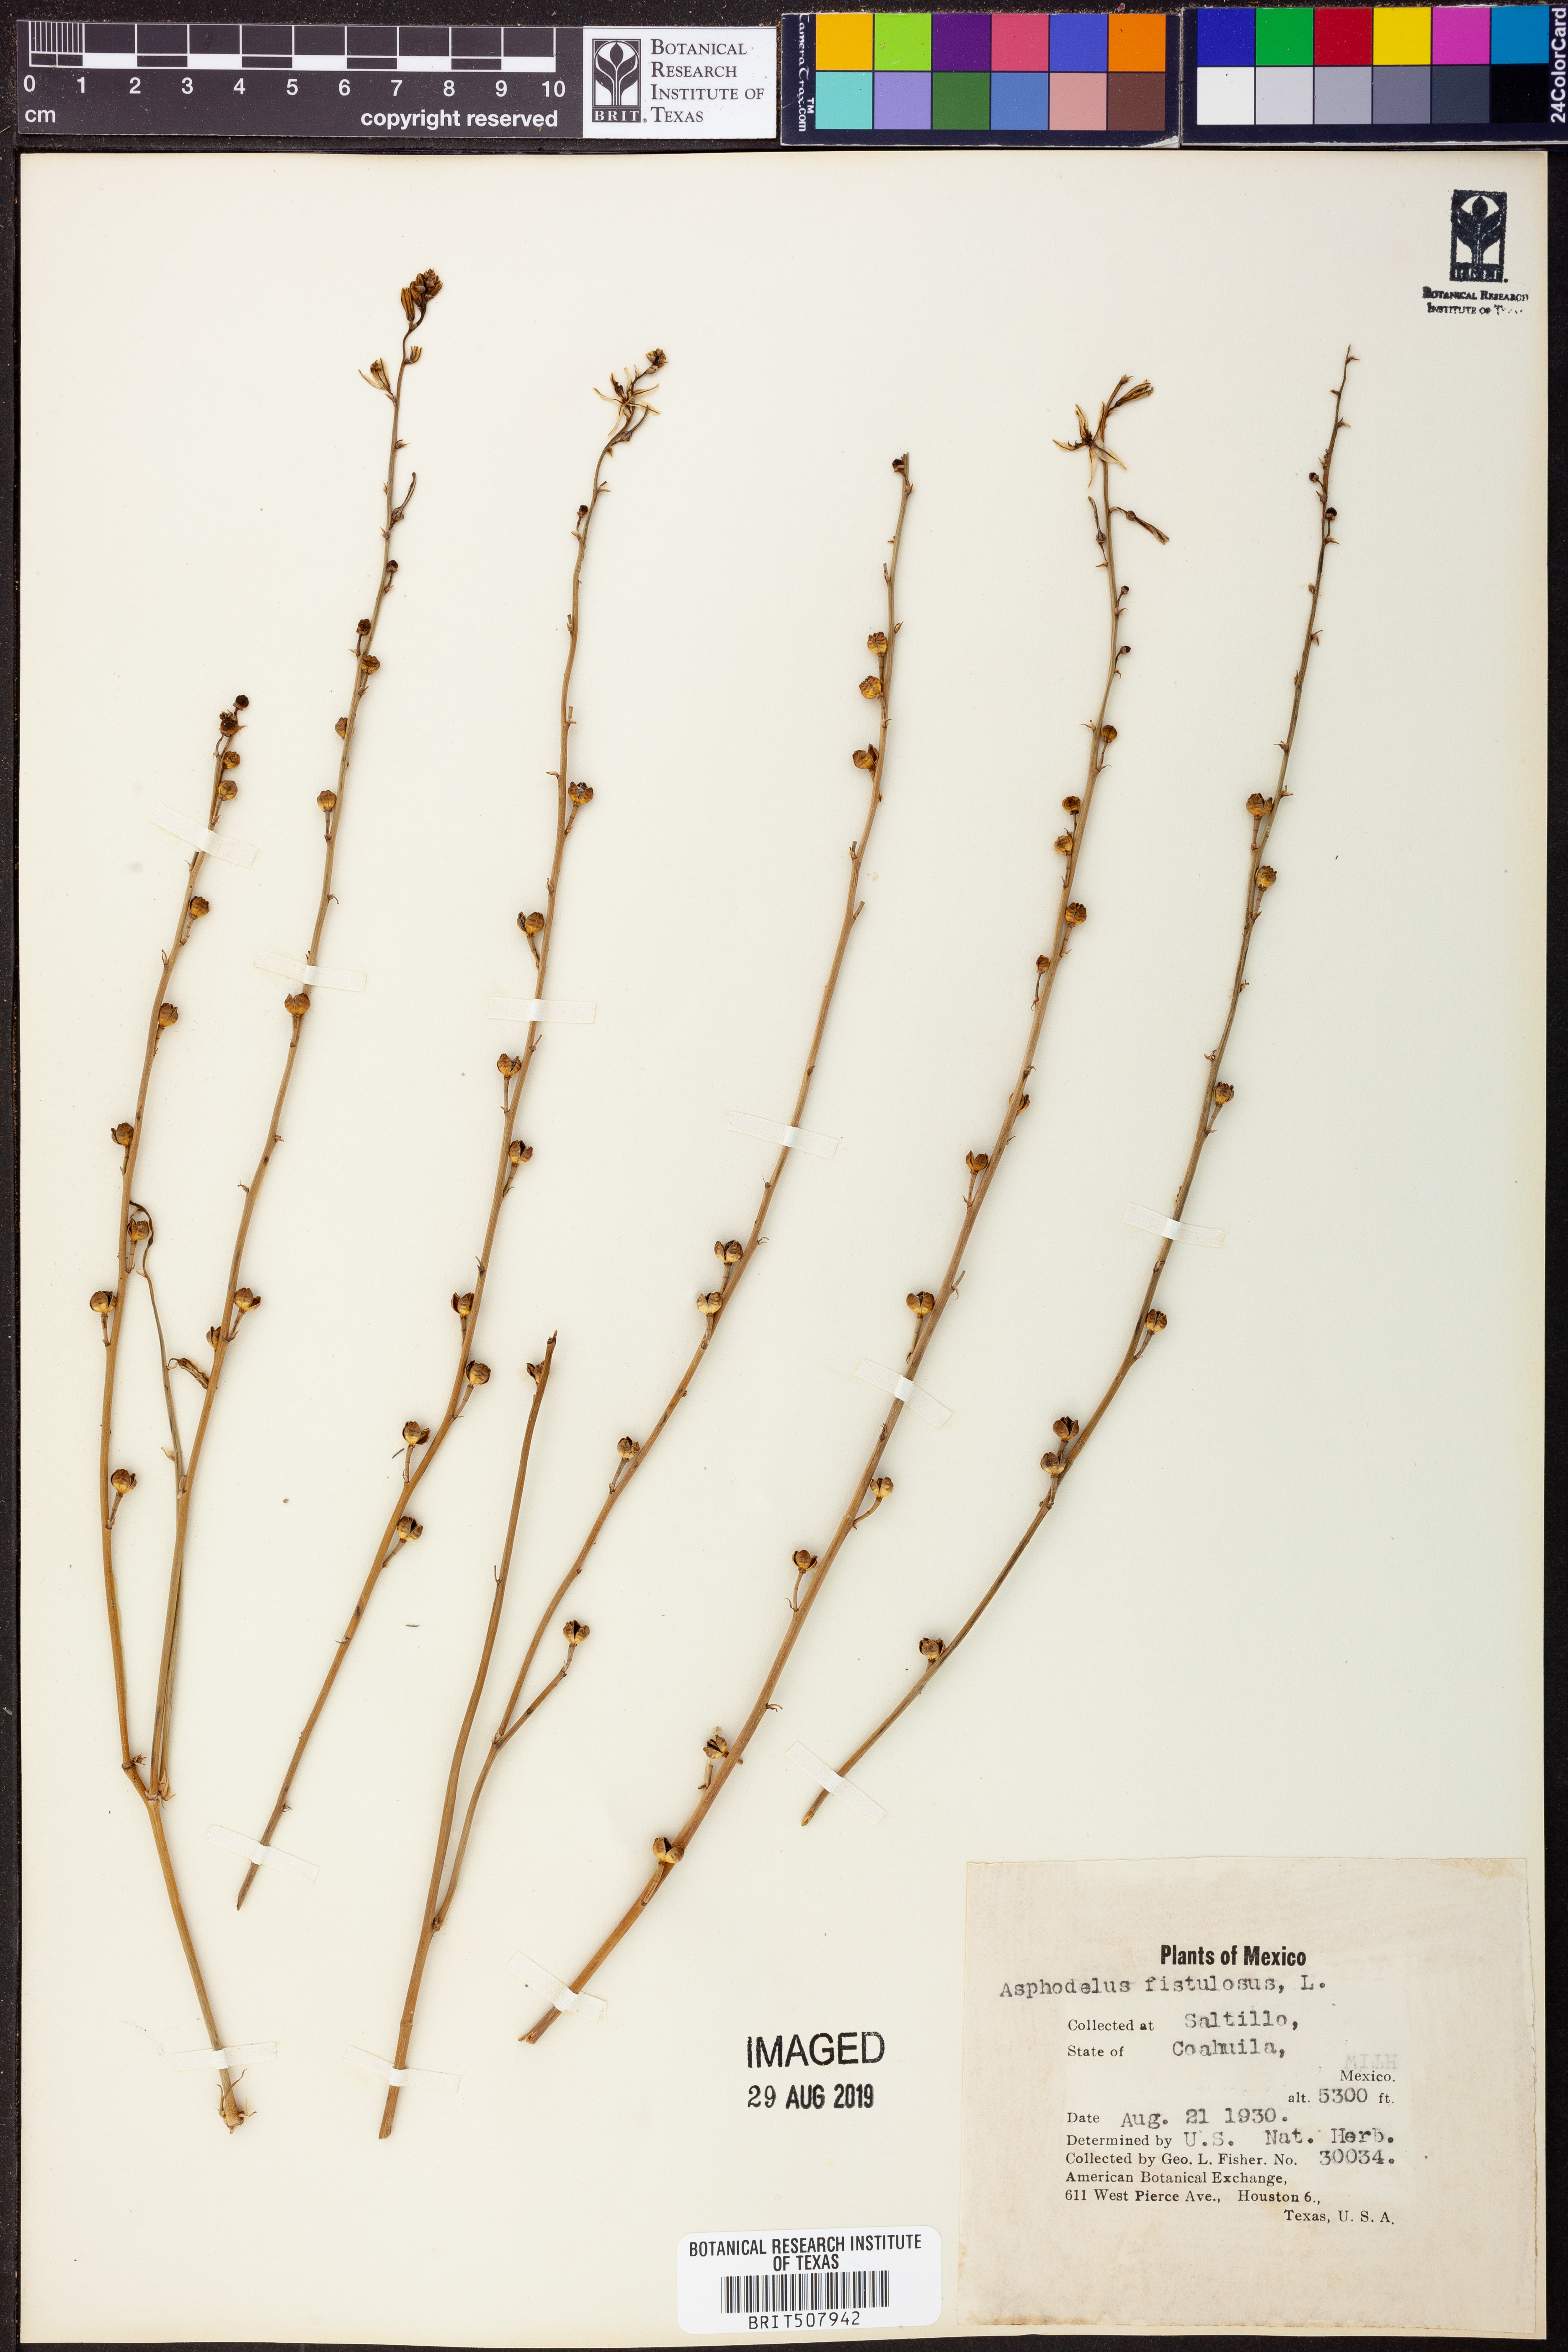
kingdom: Plantae
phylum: Tracheophyta
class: Liliopsida
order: Asparagales
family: Asphodelaceae
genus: Asphodelus
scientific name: Asphodelus fistulosus
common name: Onionweed
